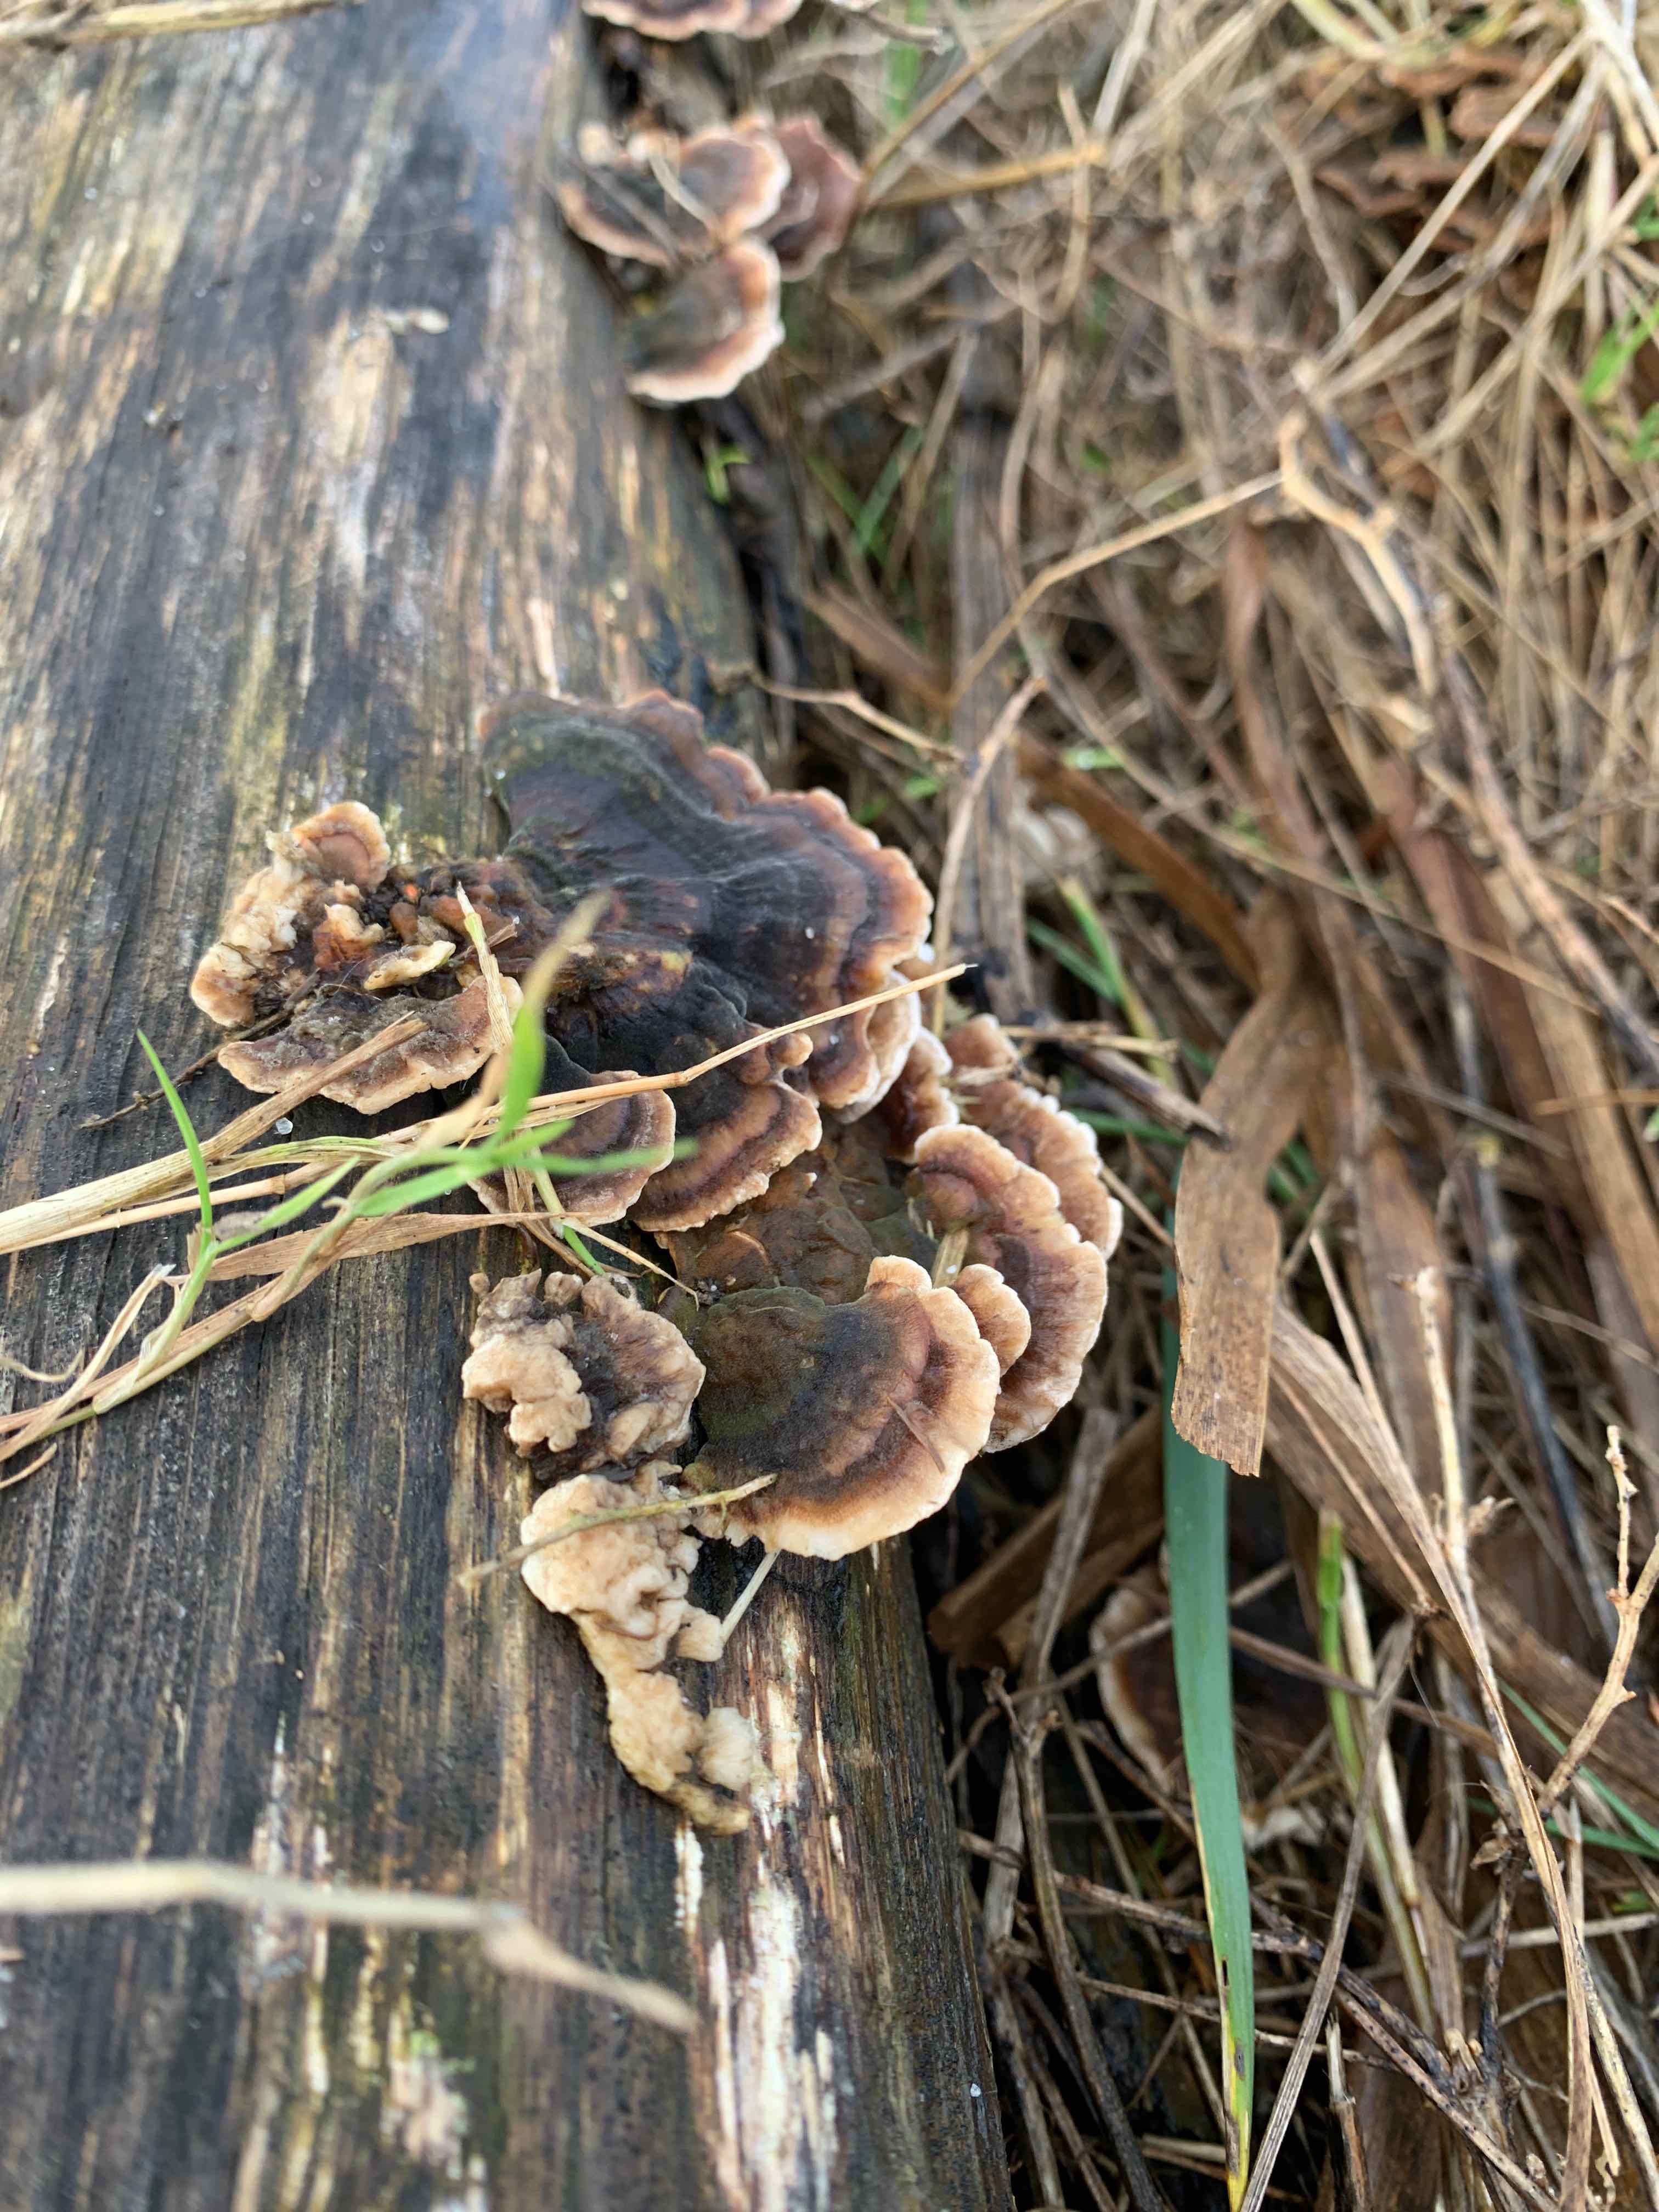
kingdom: Fungi
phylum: Basidiomycota
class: Agaricomycetes
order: Polyporales
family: Polyporaceae
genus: Trametes
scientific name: Trametes versicolor
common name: broget læderporesvamp
